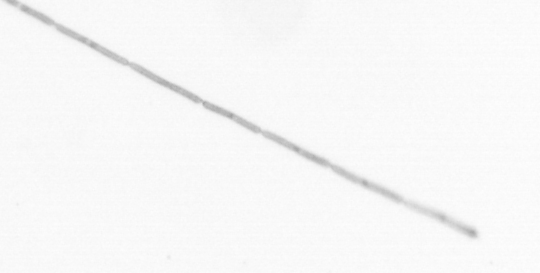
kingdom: Chromista
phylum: Ochrophyta
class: Bacillariophyceae
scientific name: Bacillariophyceae
